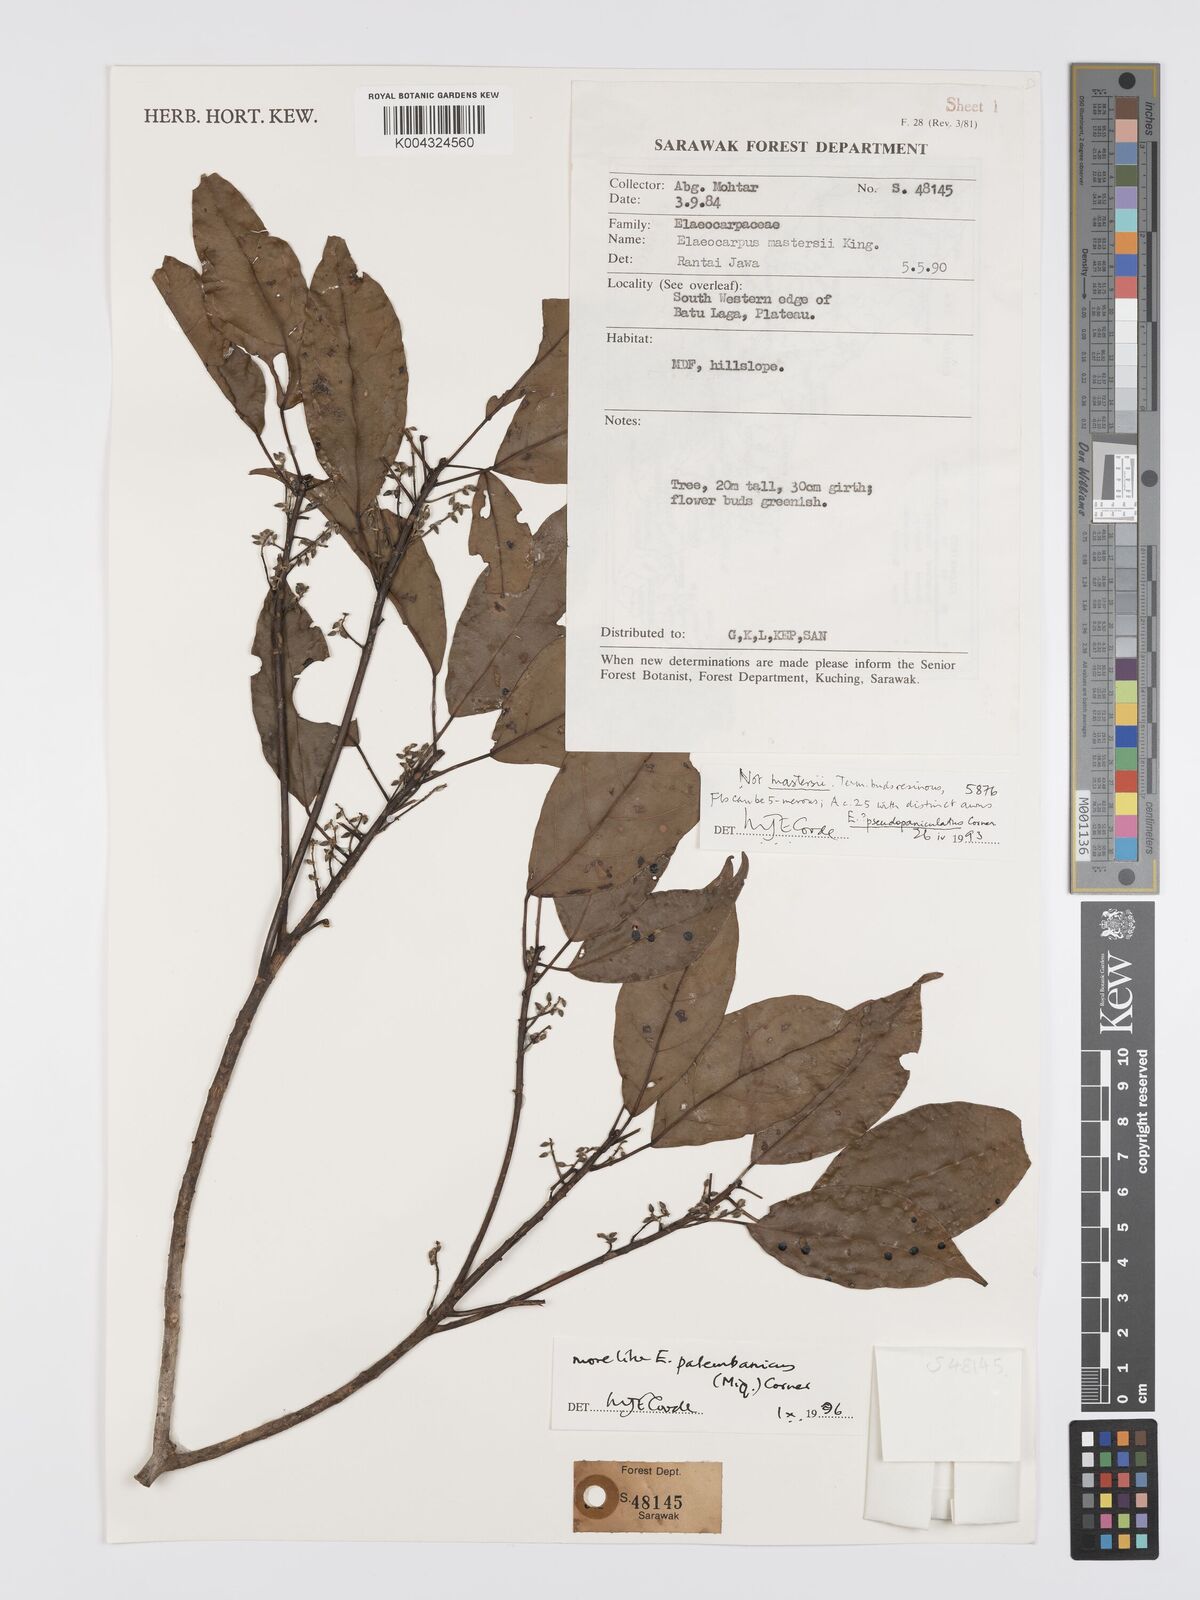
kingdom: Plantae
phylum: Tracheophyta
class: Magnoliopsida
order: Oxalidales
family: Elaeocarpaceae
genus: Elaeocarpus
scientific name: Elaeocarpus palembanicus
